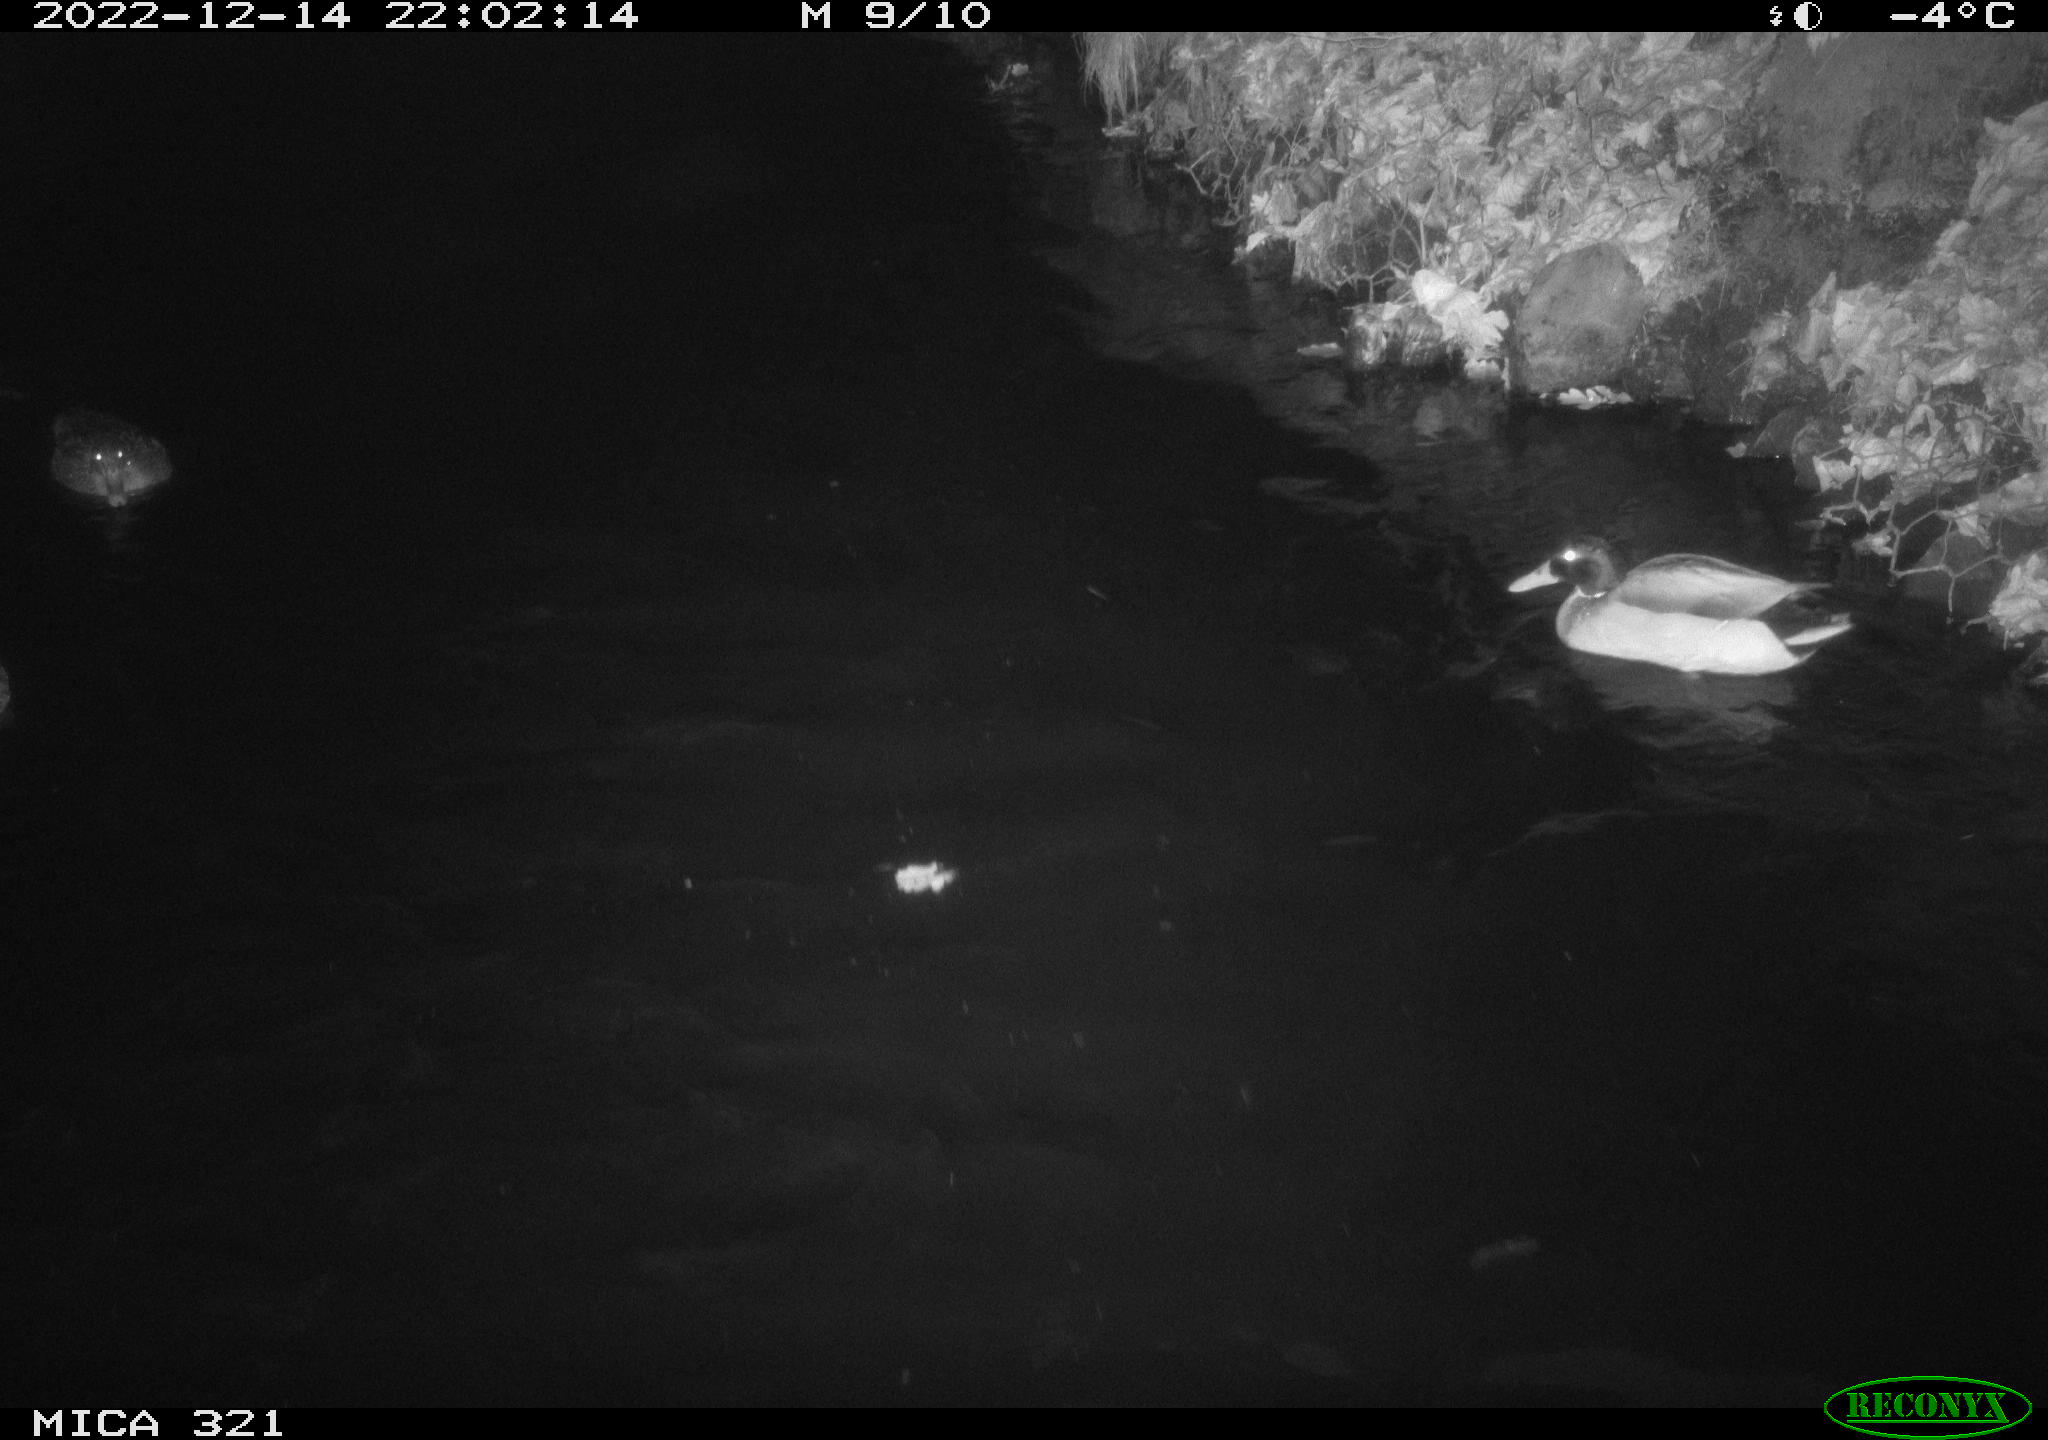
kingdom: Animalia
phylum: Chordata
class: Aves
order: Anseriformes
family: Anatidae
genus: Anas
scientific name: Anas
